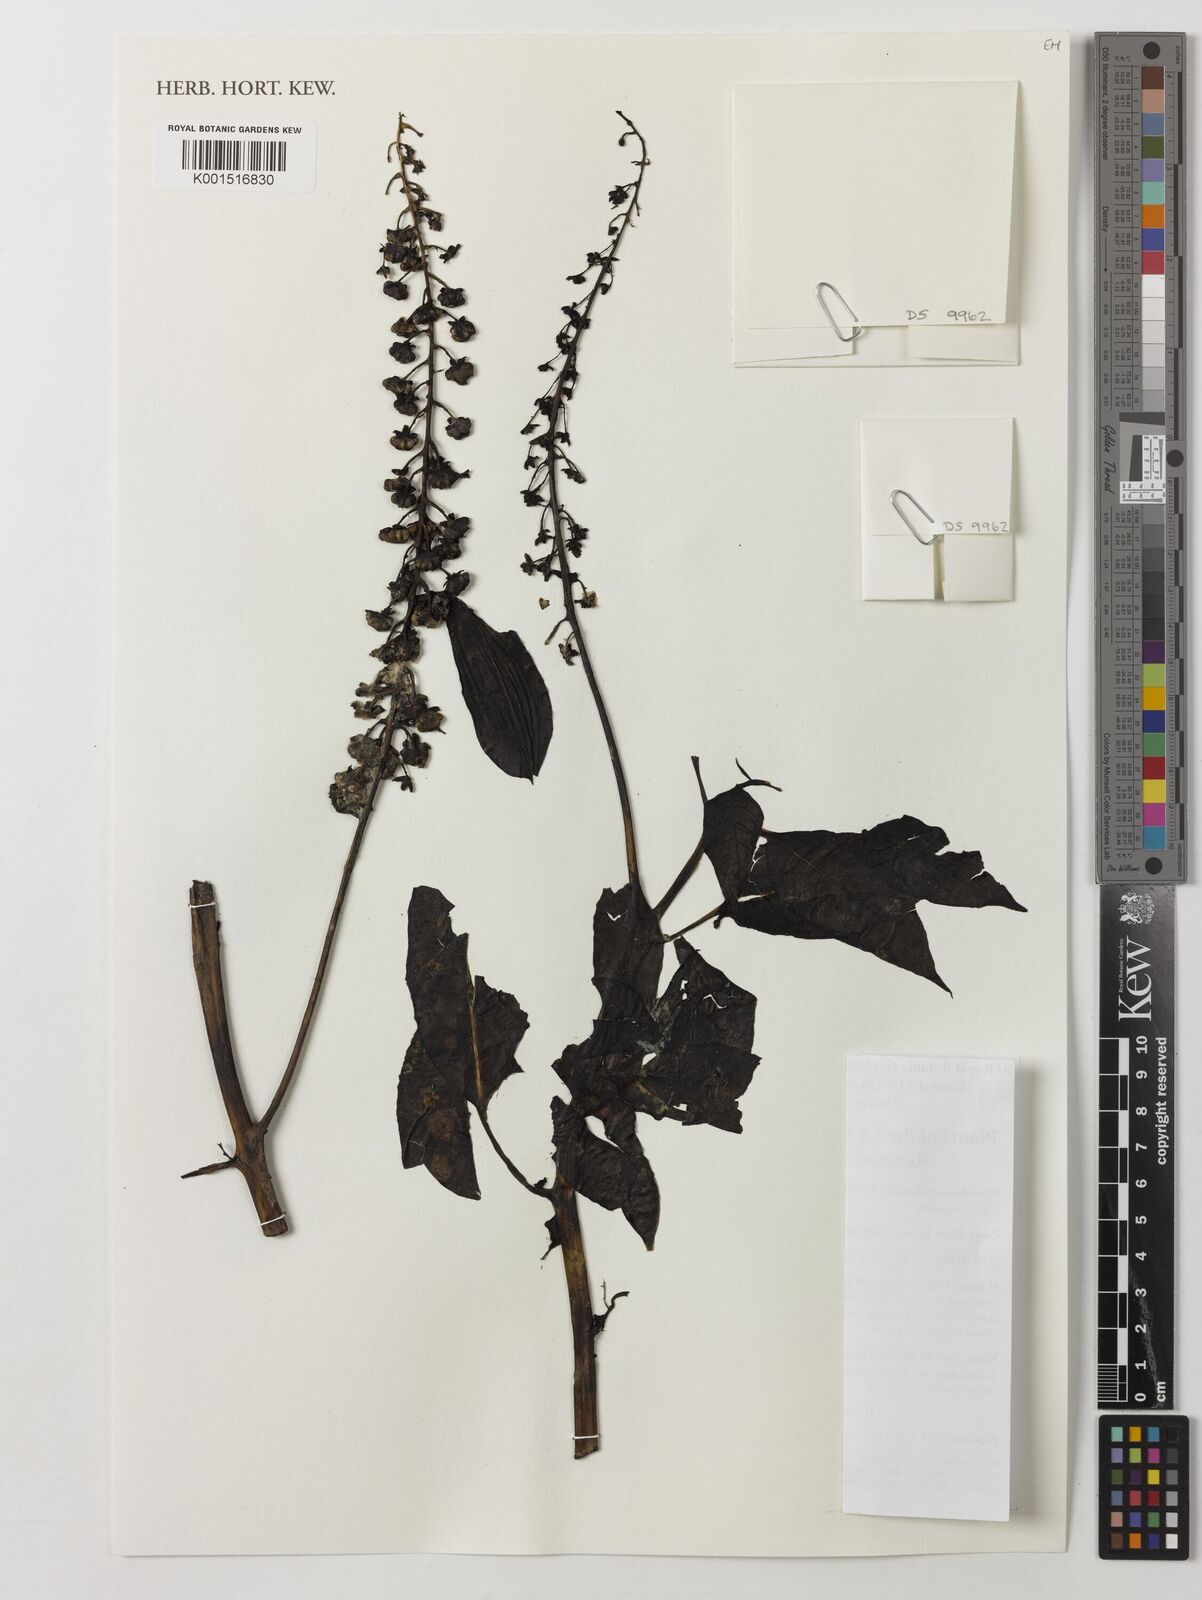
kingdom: Plantae
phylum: Tracheophyta
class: Magnoliopsida
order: Caryophyllales
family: Phytolaccaceae
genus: Phytolacca
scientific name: Phytolacca rivinoides
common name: Venezuelan pokeweed
